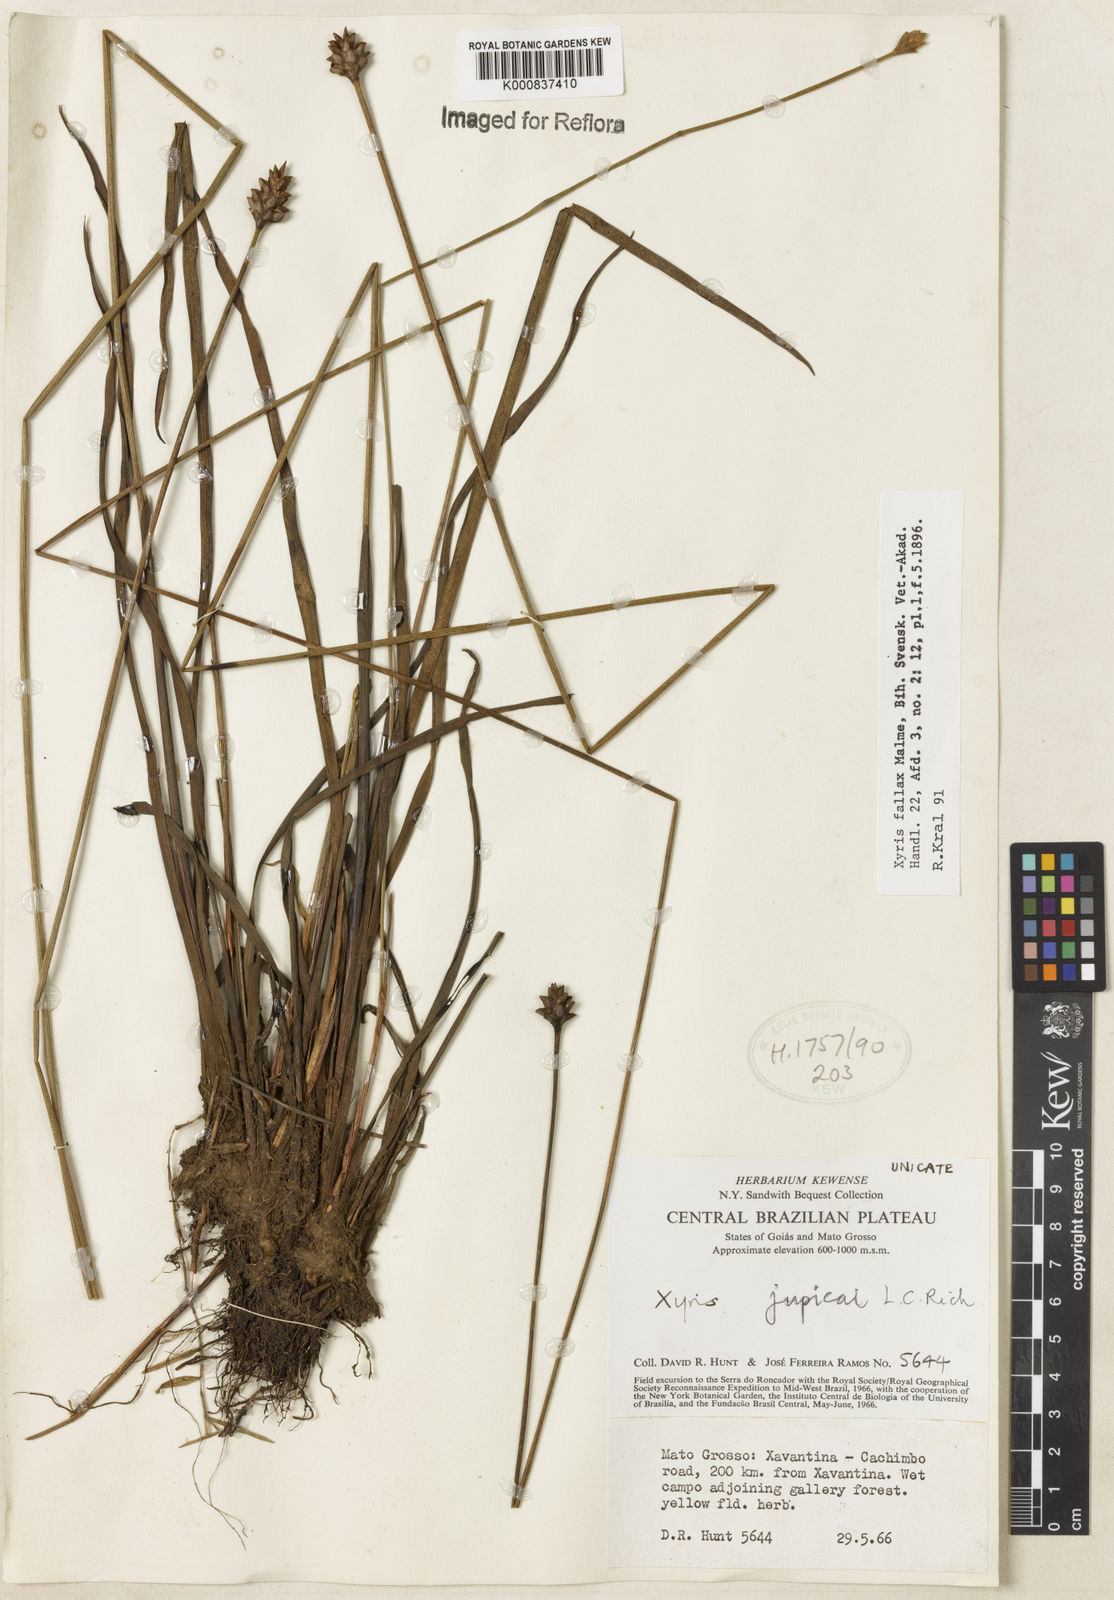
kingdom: Plantae
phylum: Tracheophyta
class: Liliopsida
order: Poales
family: Xyridaceae
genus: Xyris
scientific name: Xyris fallax
